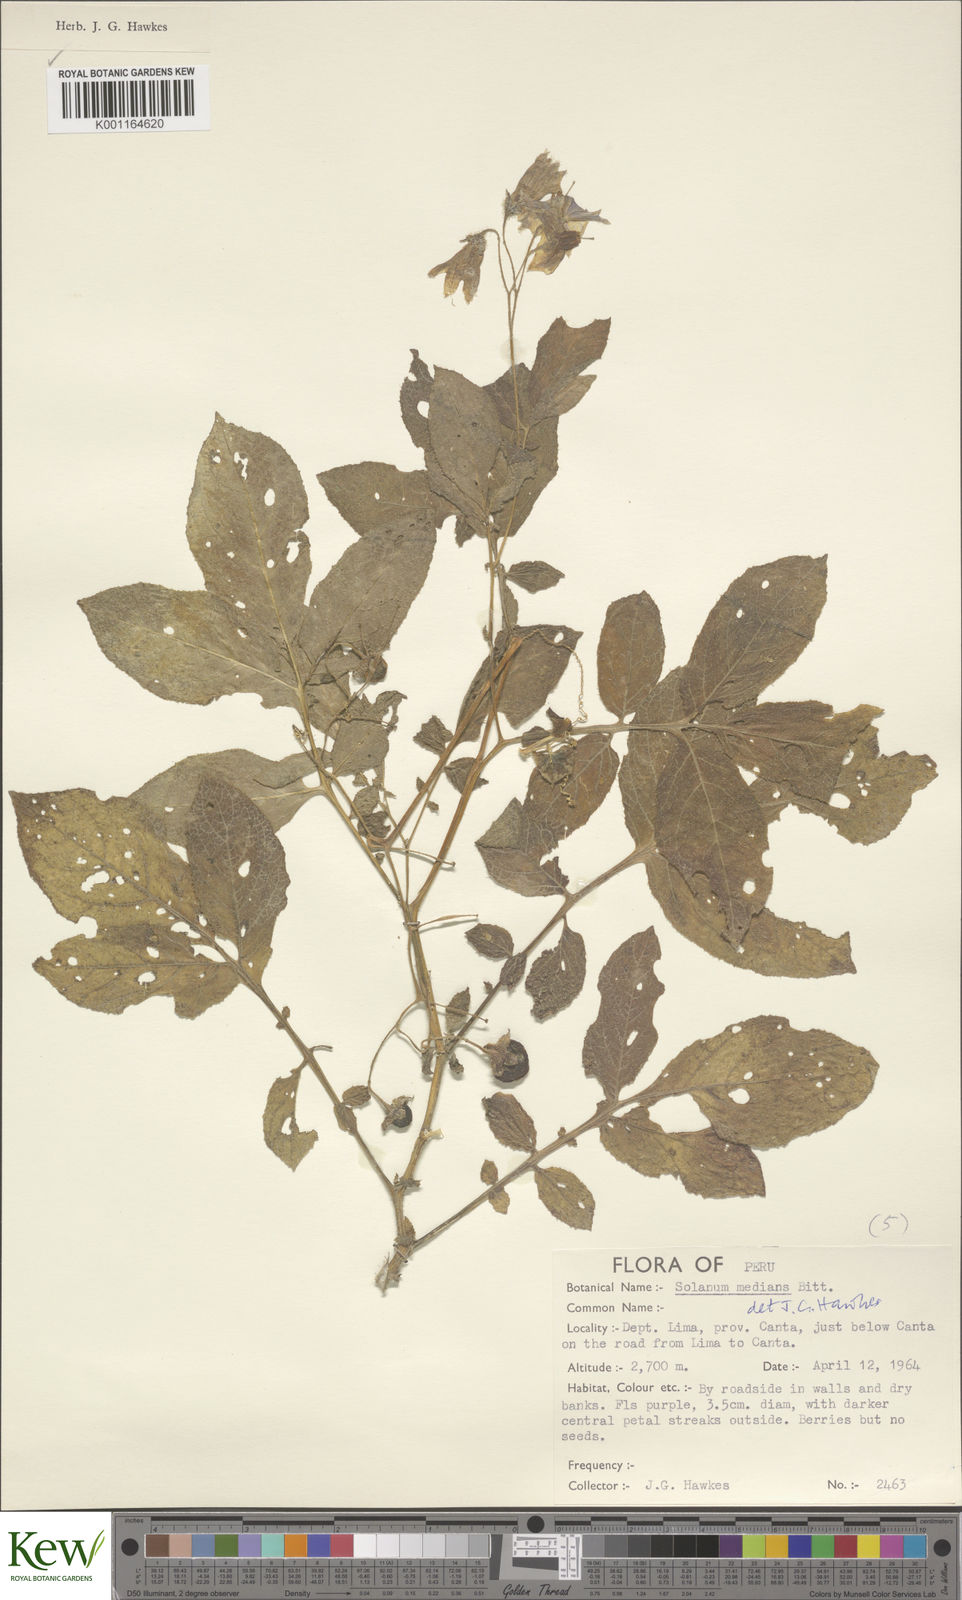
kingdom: Plantae
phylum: Tracheophyta
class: Magnoliopsida
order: Solanales
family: Solanaceae
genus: Solanum
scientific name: Solanum medians
